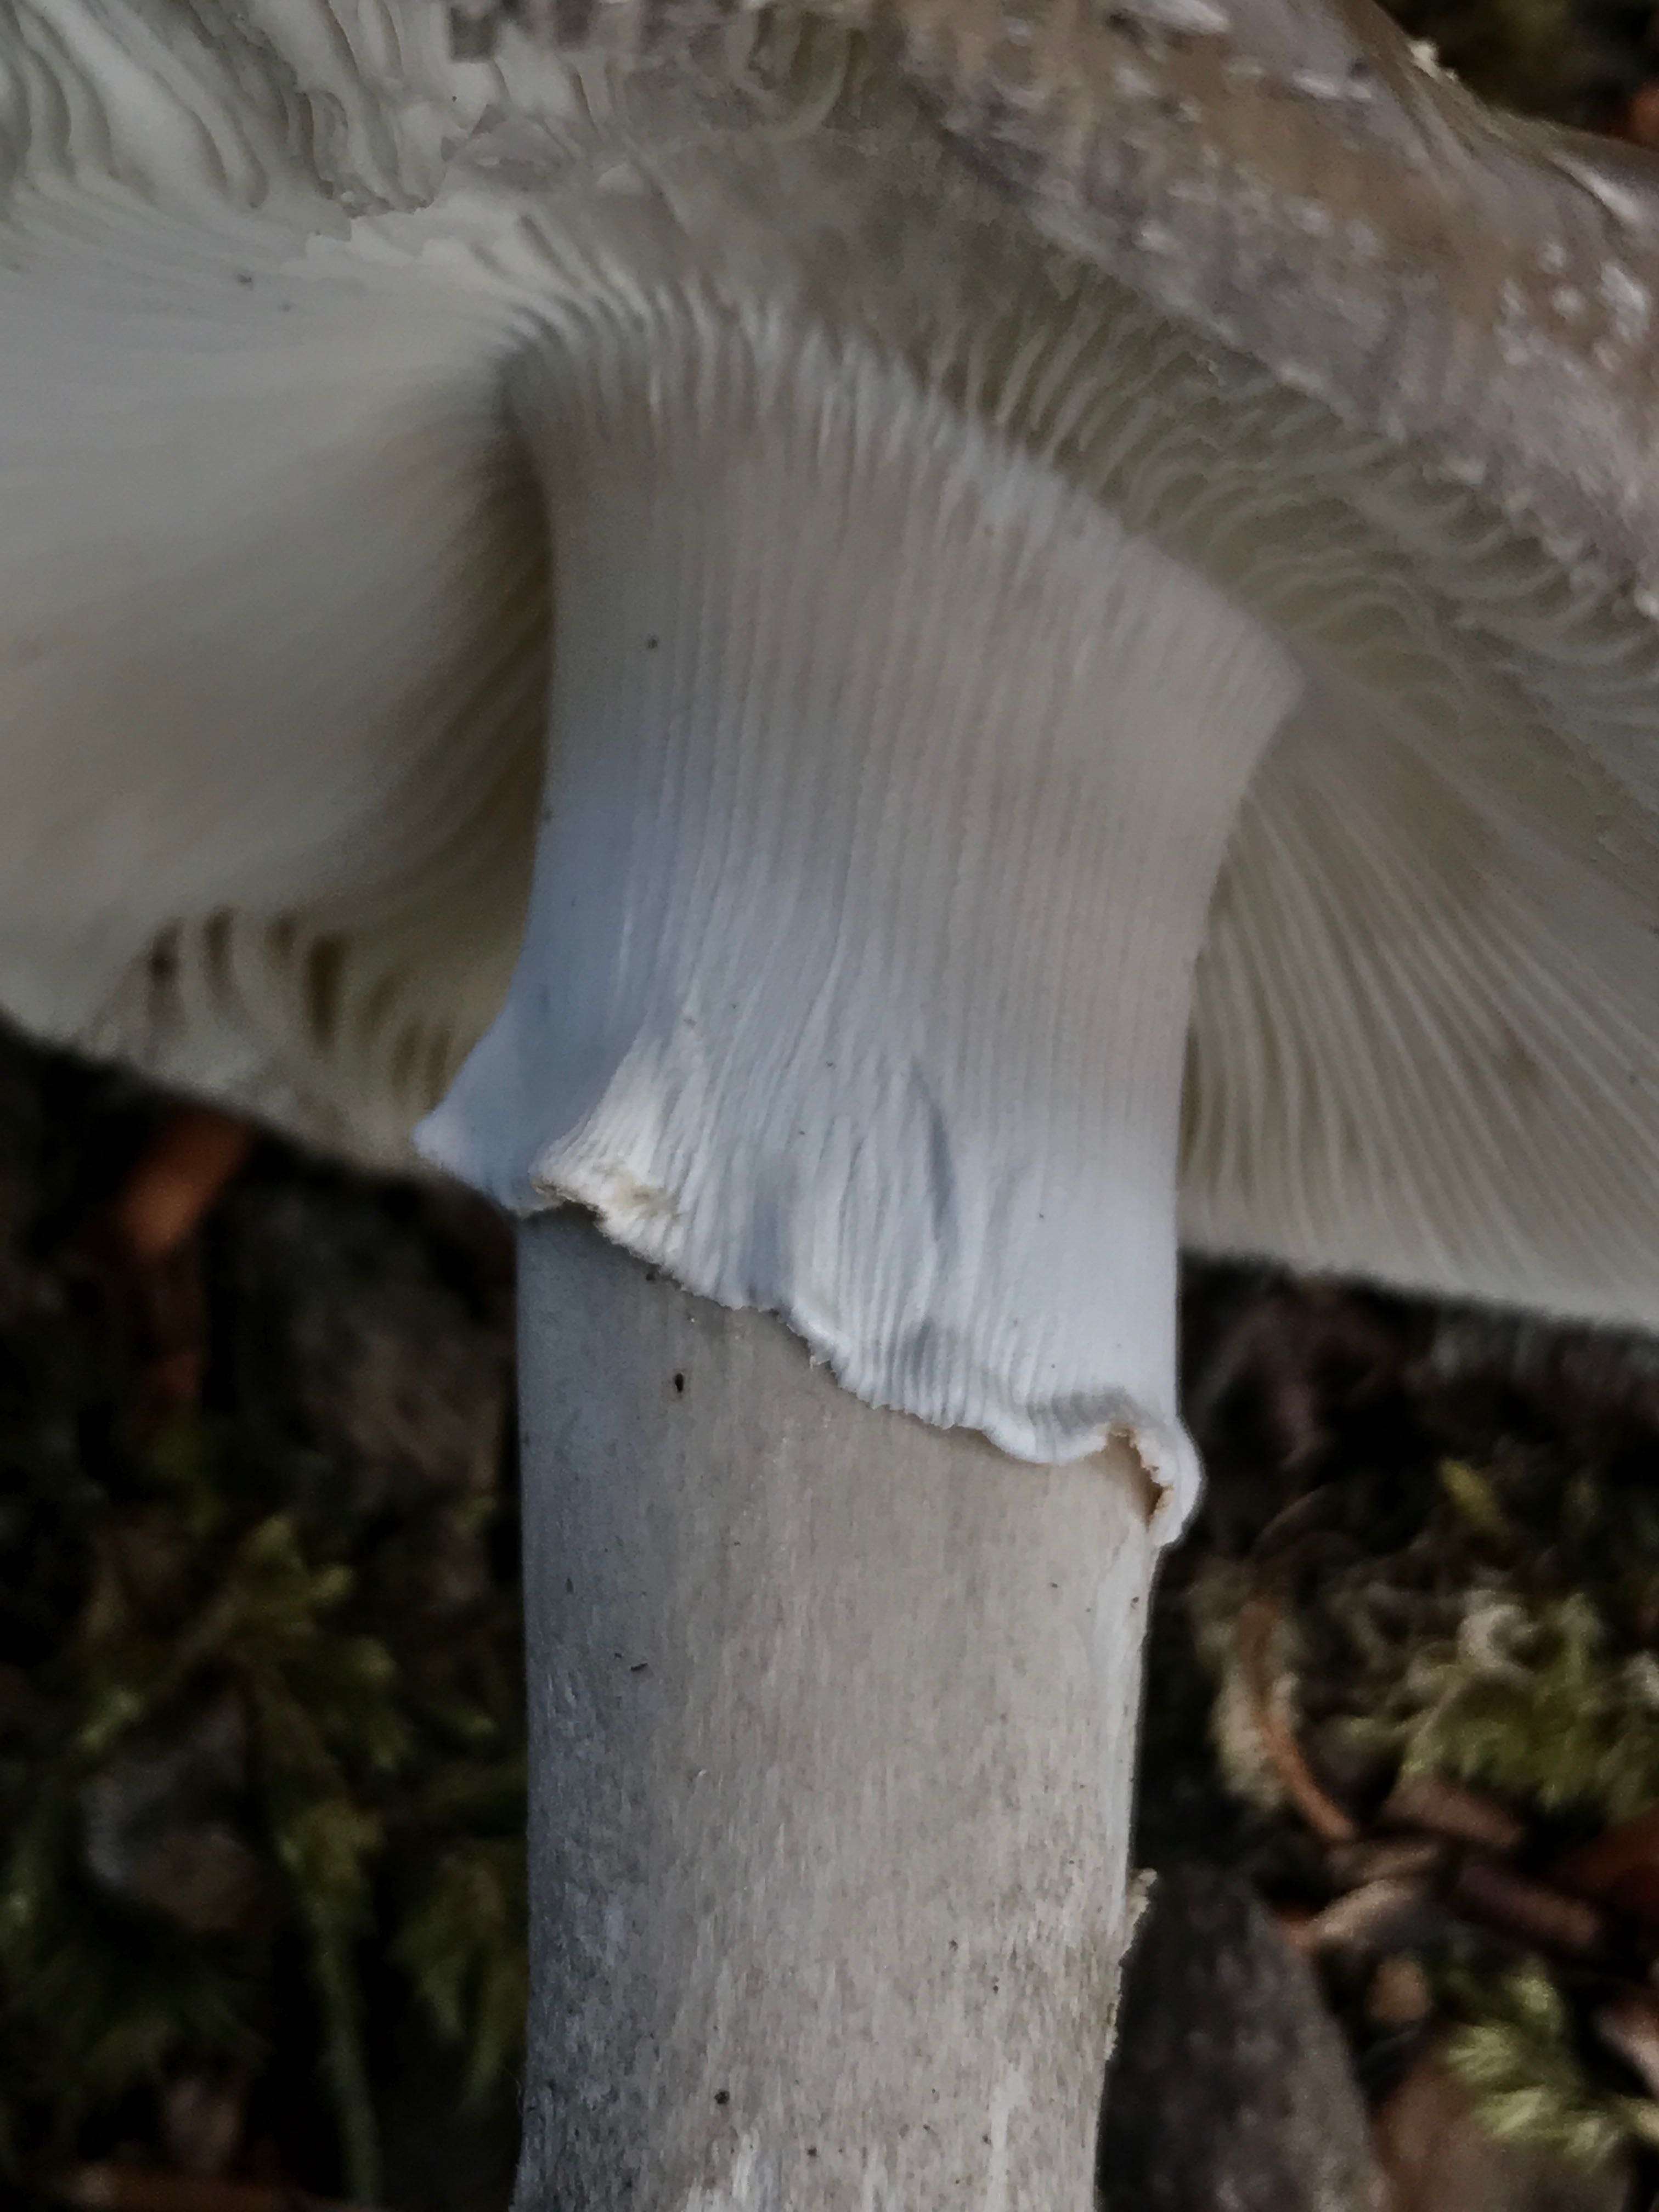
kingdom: Fungi
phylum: Basidiomycota
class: Agaricomycetes
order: Agaricales
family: Amanitaceae
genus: Amanita
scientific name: Amanita
